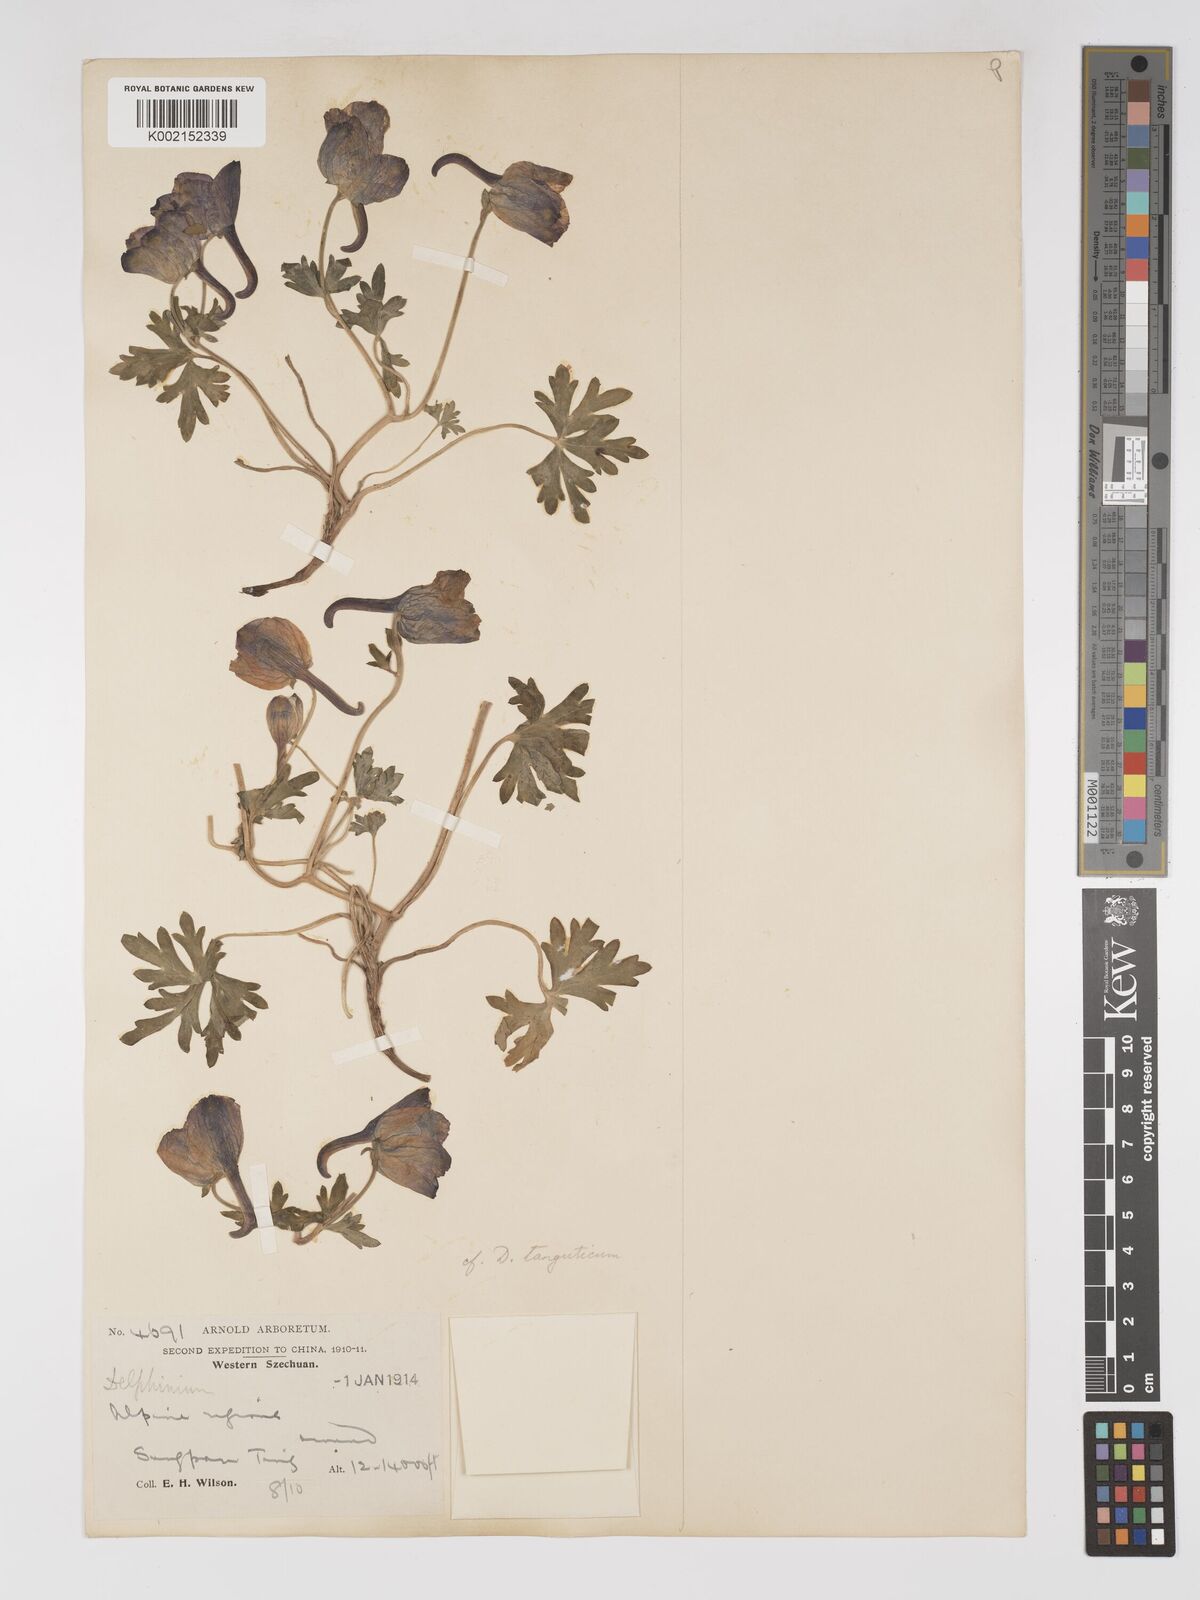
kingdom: Plantae
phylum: Tracheophyta
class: Magnoliopsida
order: Ranunculales
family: Ranunculaceae
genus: Delphinium
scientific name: Delphinium pylzowii
